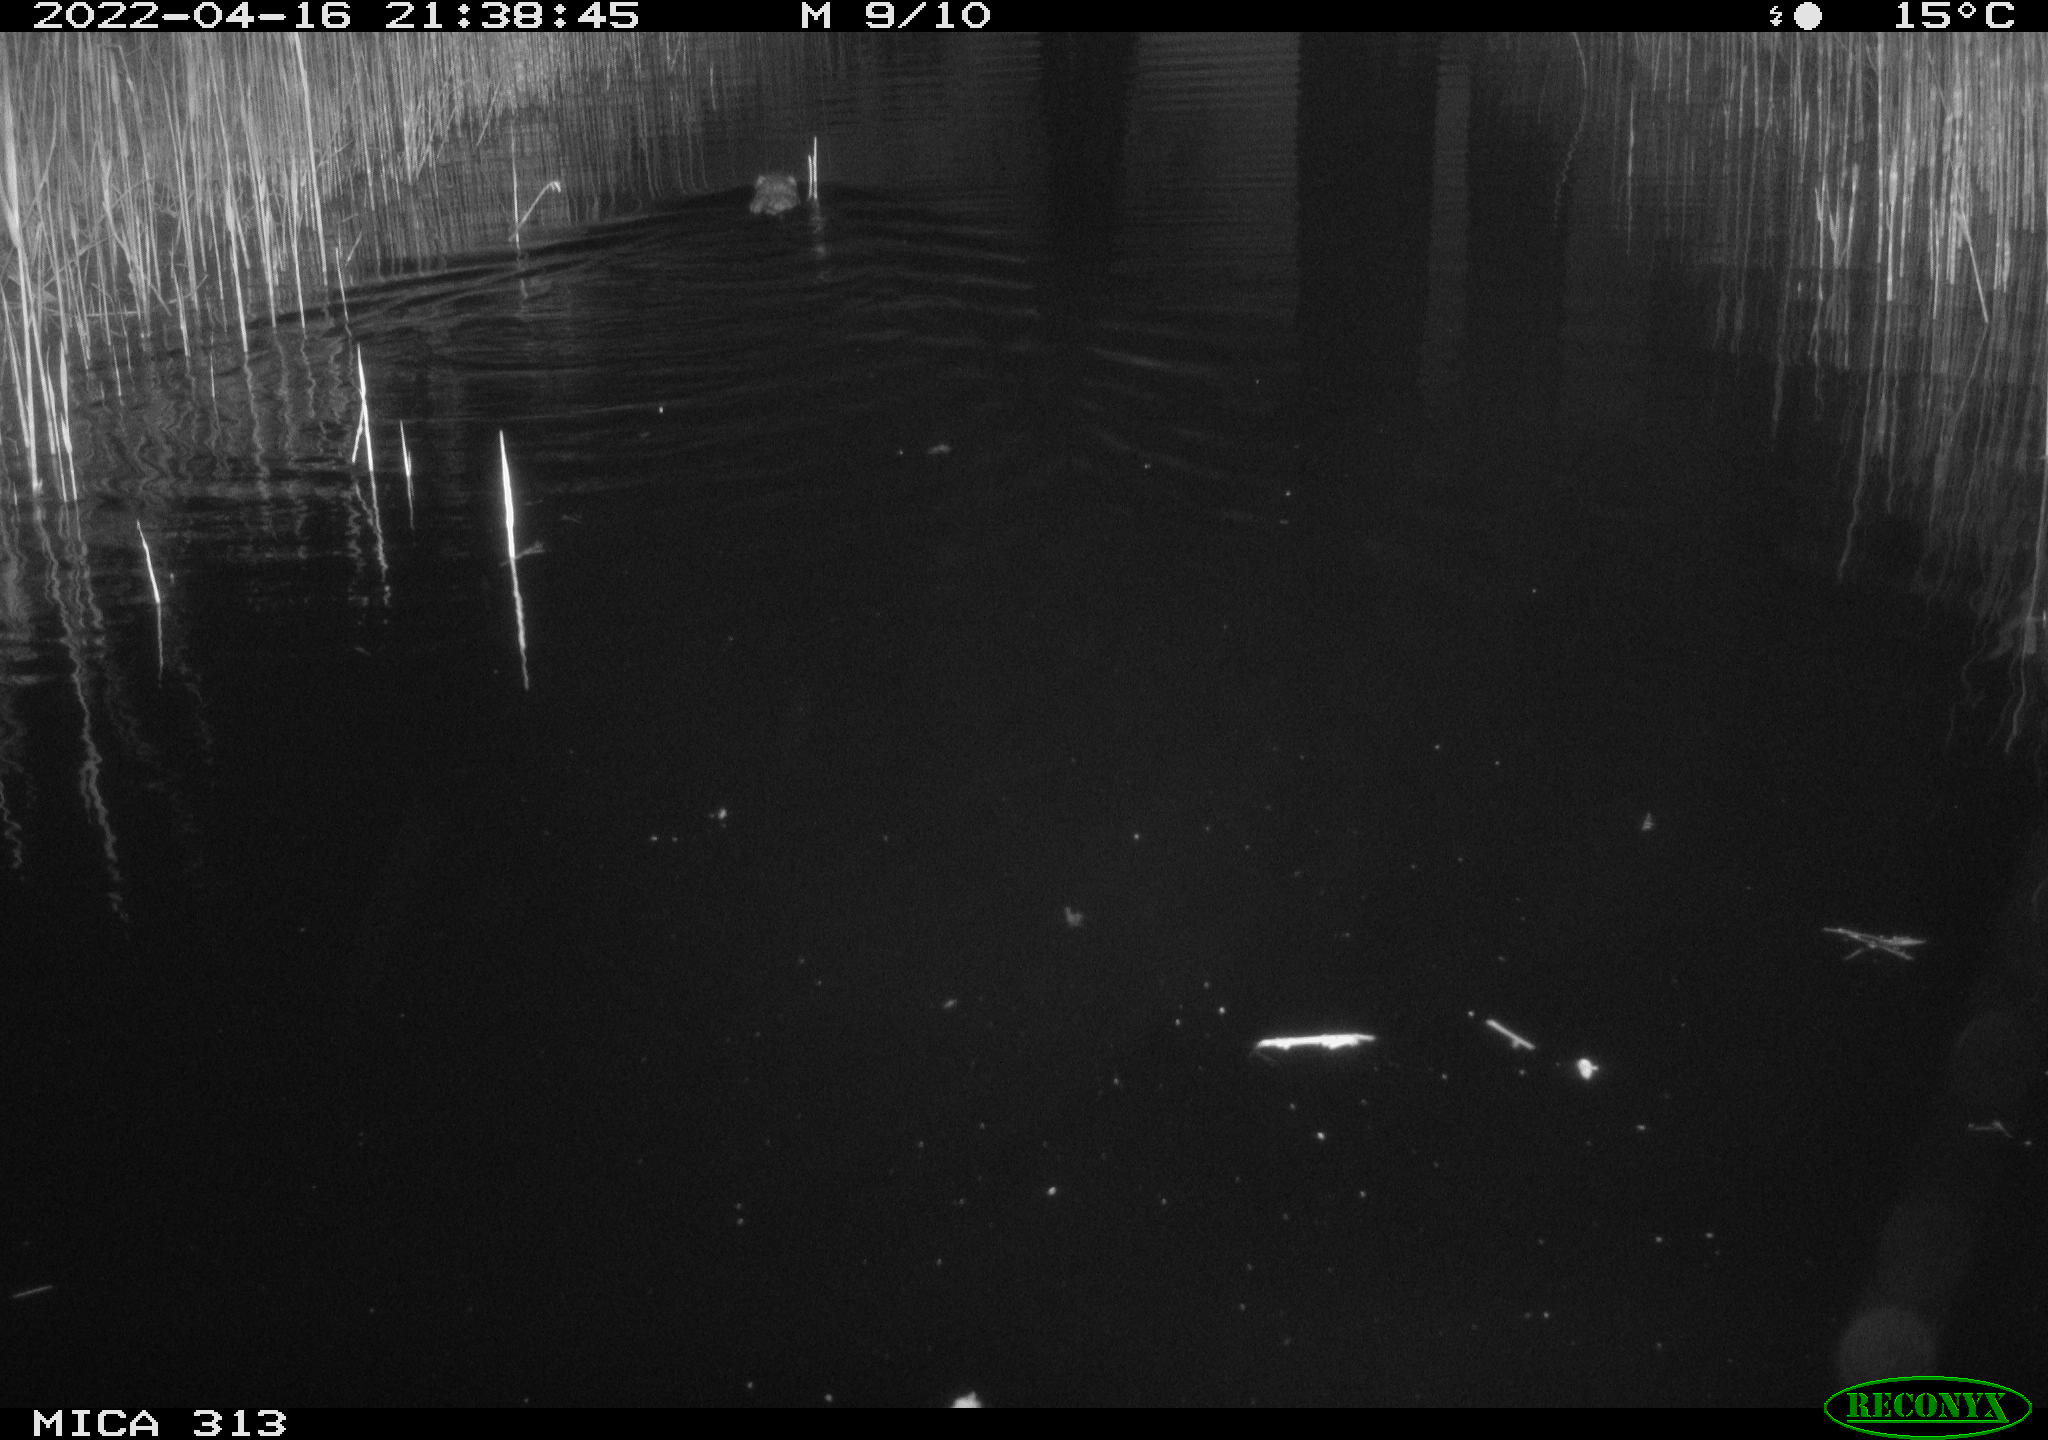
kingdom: Animalia
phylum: Chordata
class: Mammalia
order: Rodentia
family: Muridae
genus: Rattus
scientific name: Rattus norvegicus
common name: Brown rat
